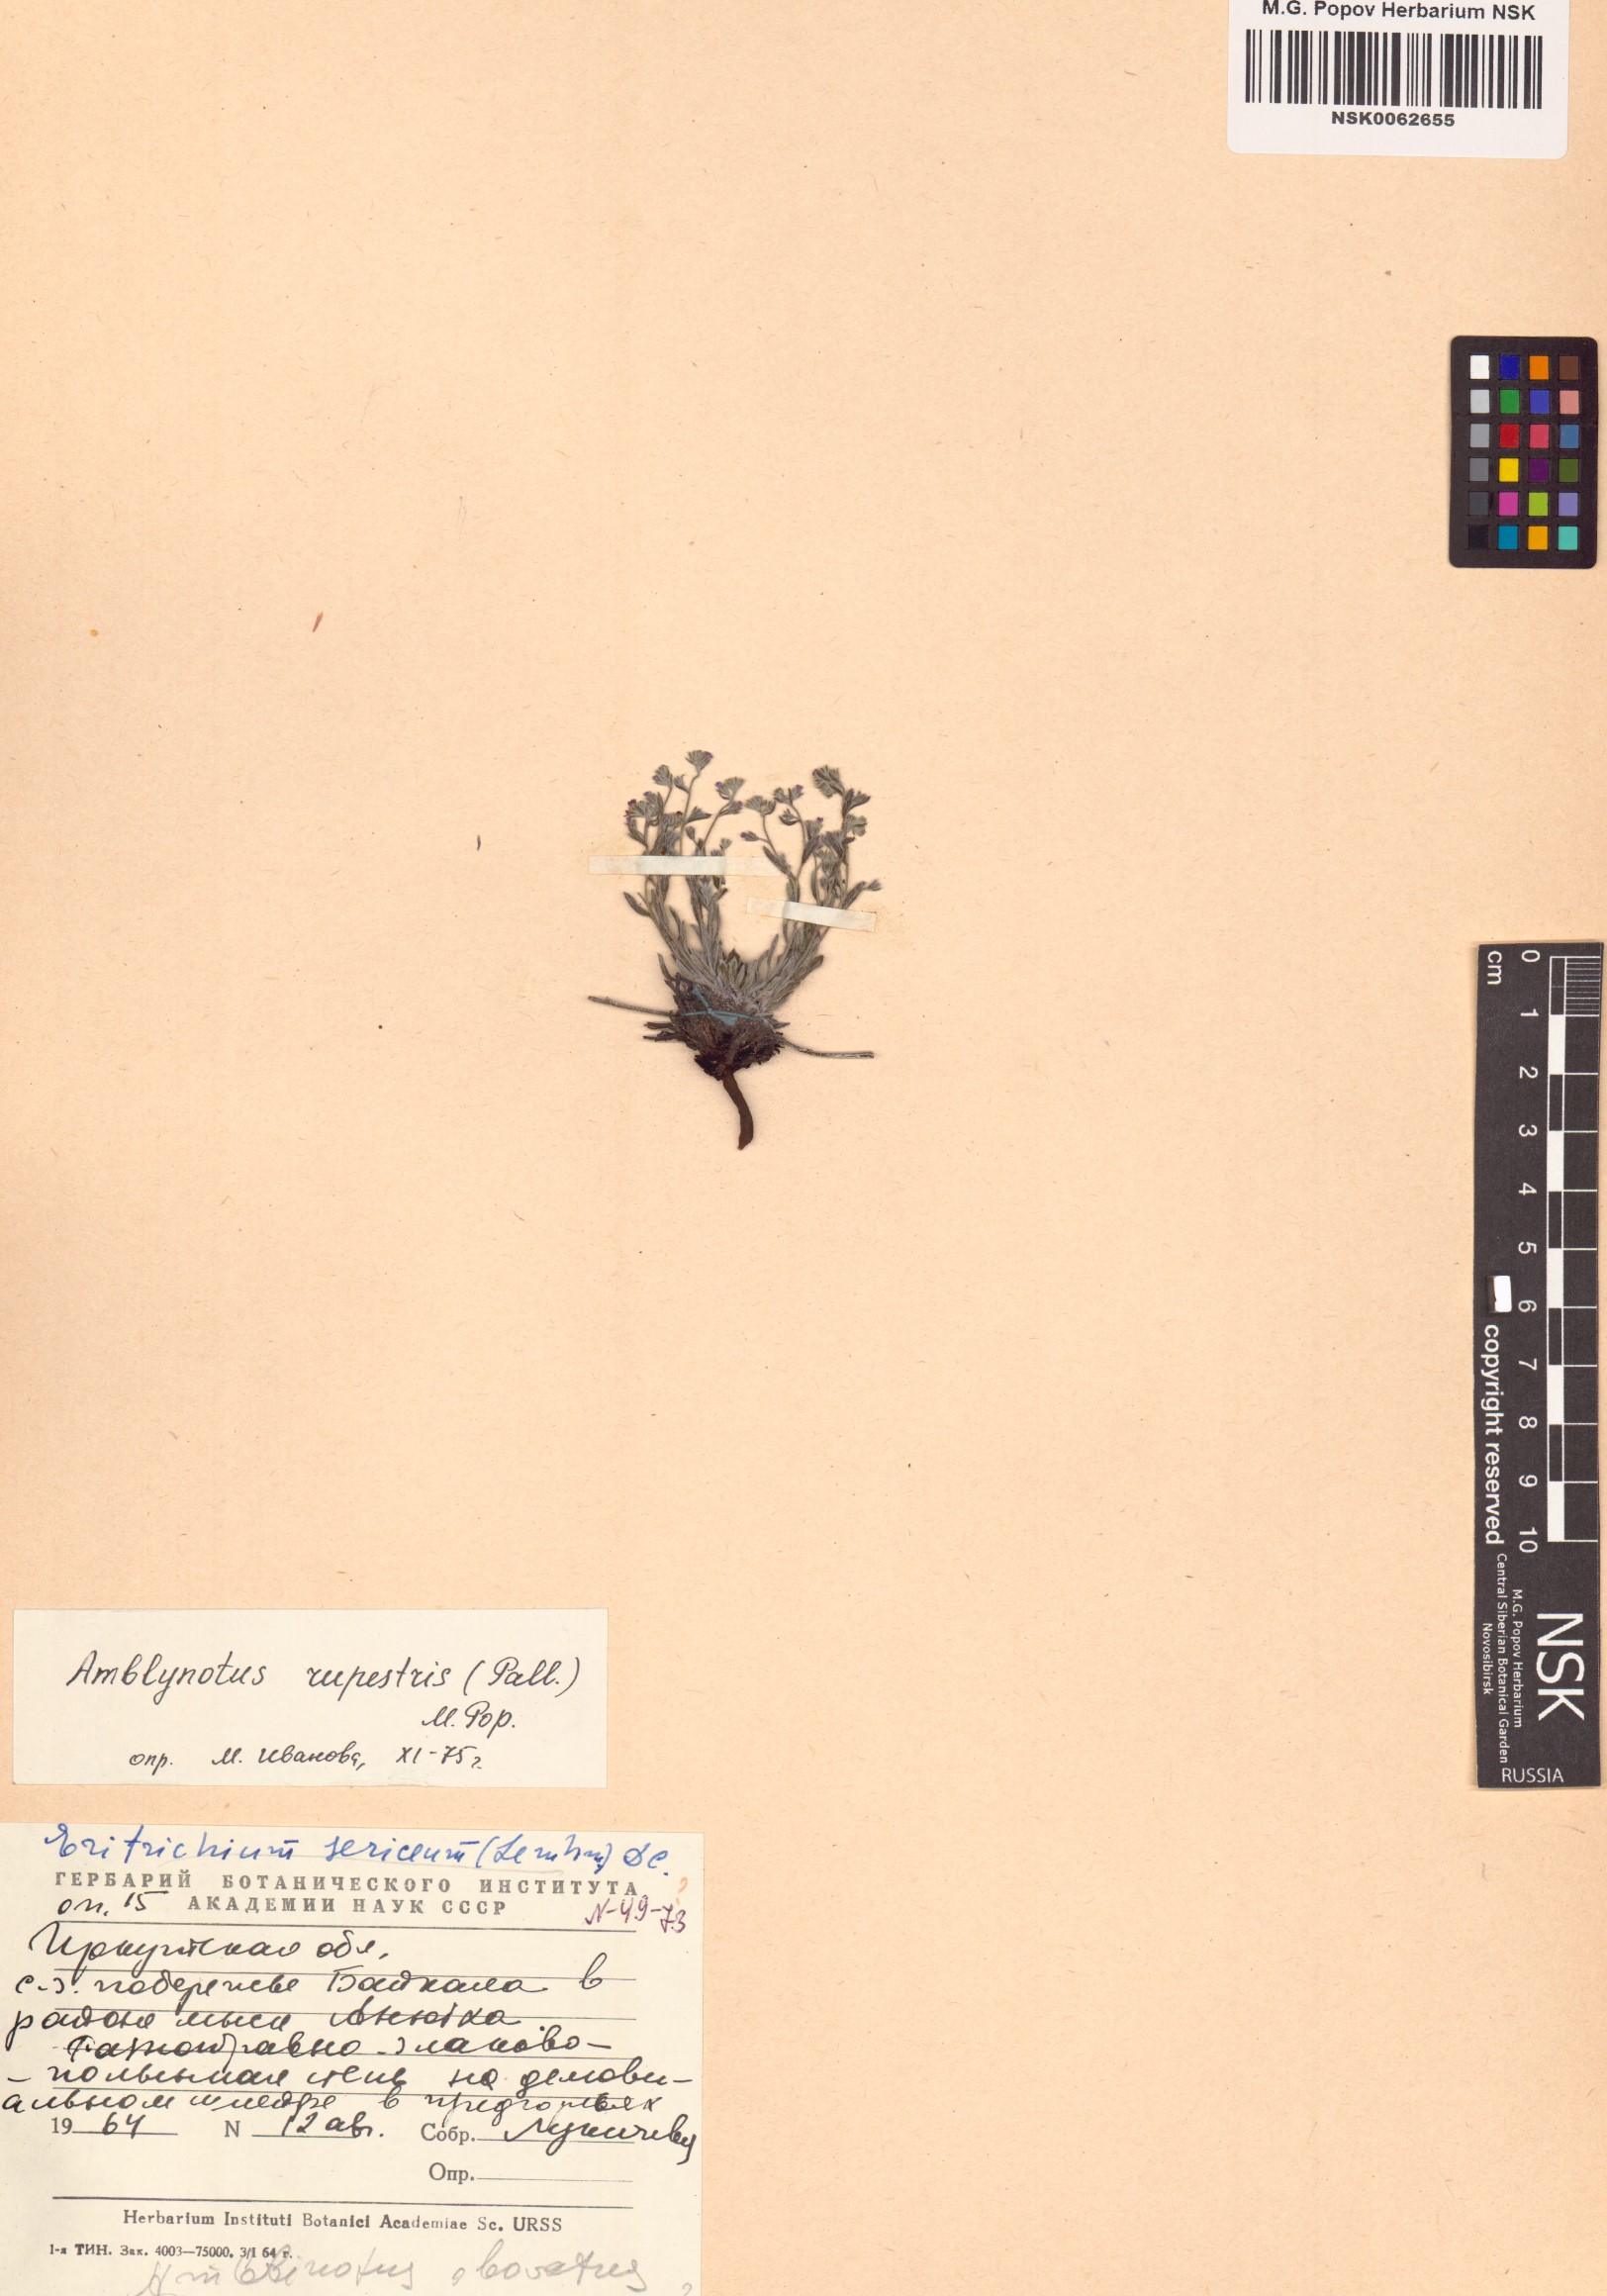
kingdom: Plantae
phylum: Tracheophyta
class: Magnoliopsida
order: Boraginales
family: Boraginaceae
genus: Eritrichium
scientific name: Eritrichium rupestre
